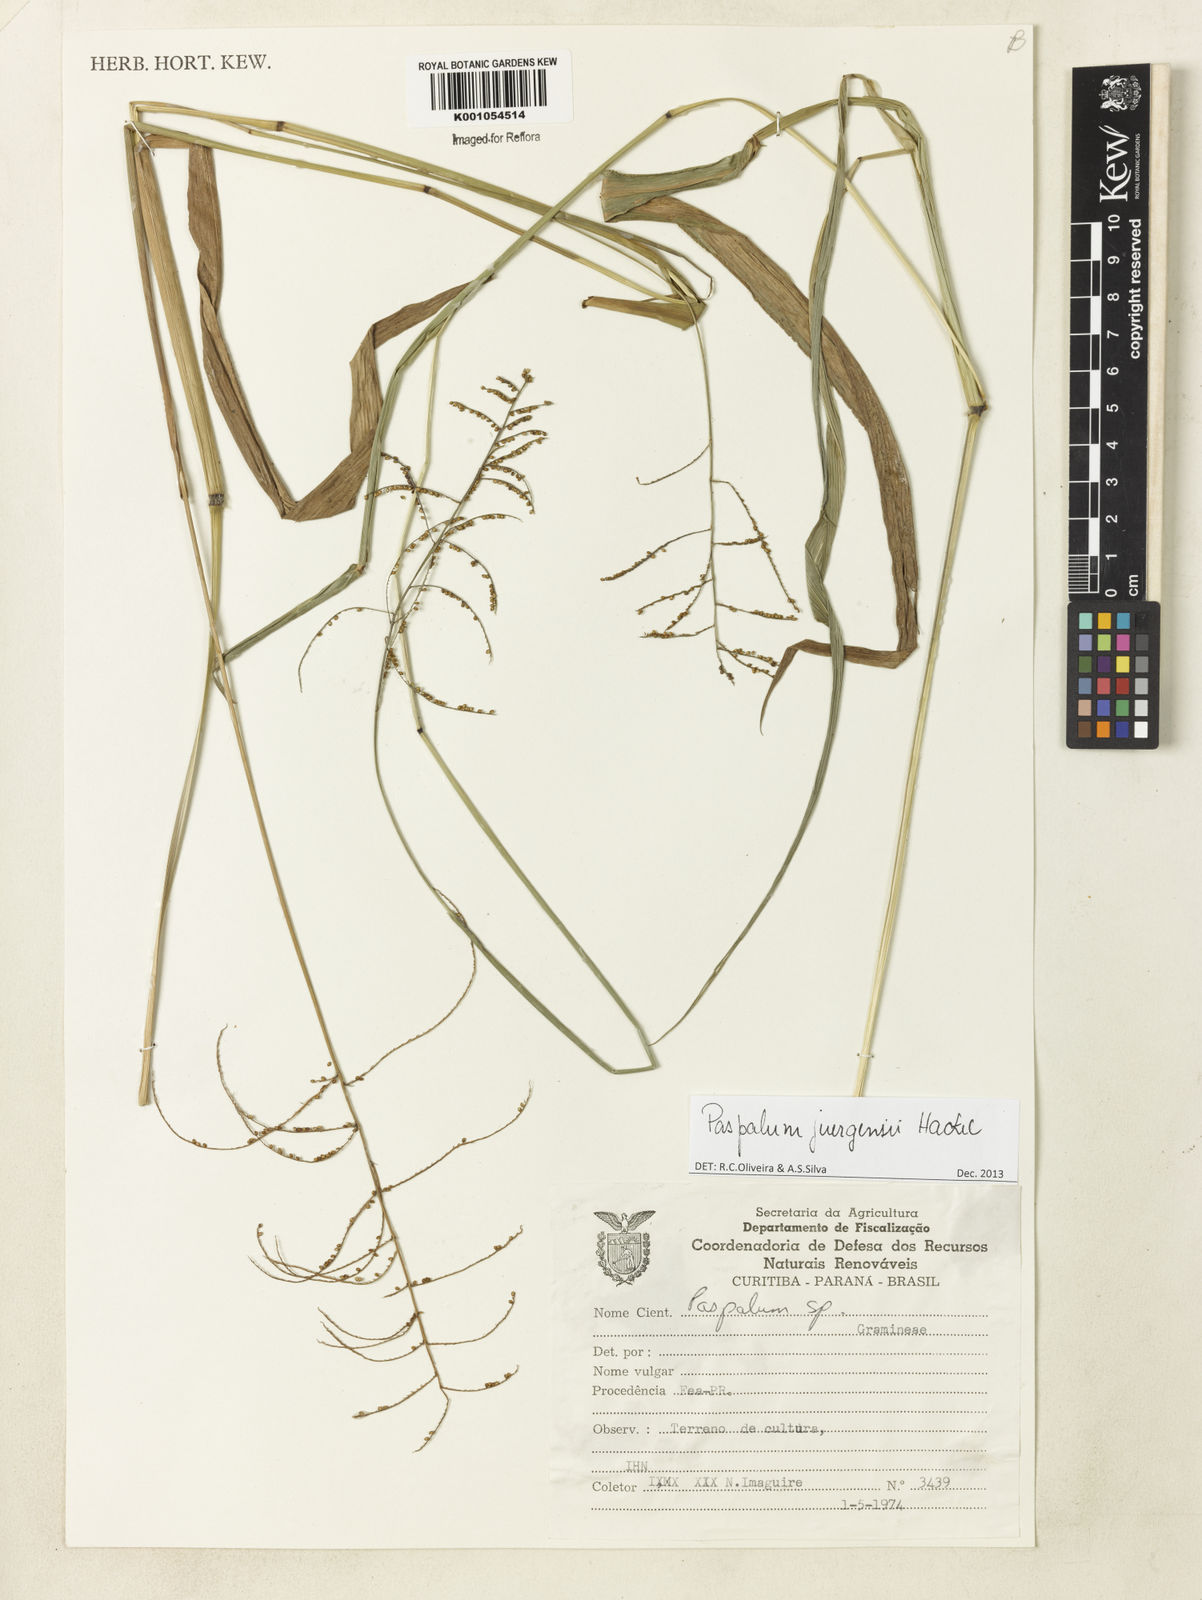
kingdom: Plantae
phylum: Tracheophyta
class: Liliopsida
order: Poales
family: Poaceae
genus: Paspalum
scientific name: Paspalum juergensii
